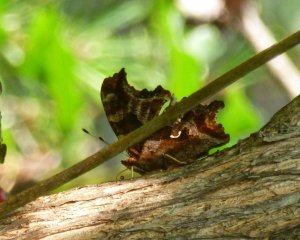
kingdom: Animalia
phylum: Arthropoda
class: Insecta
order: Lepidoptera
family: Nymphalidae
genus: Polygonia
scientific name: Polygonia comma
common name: Eastern Comma
